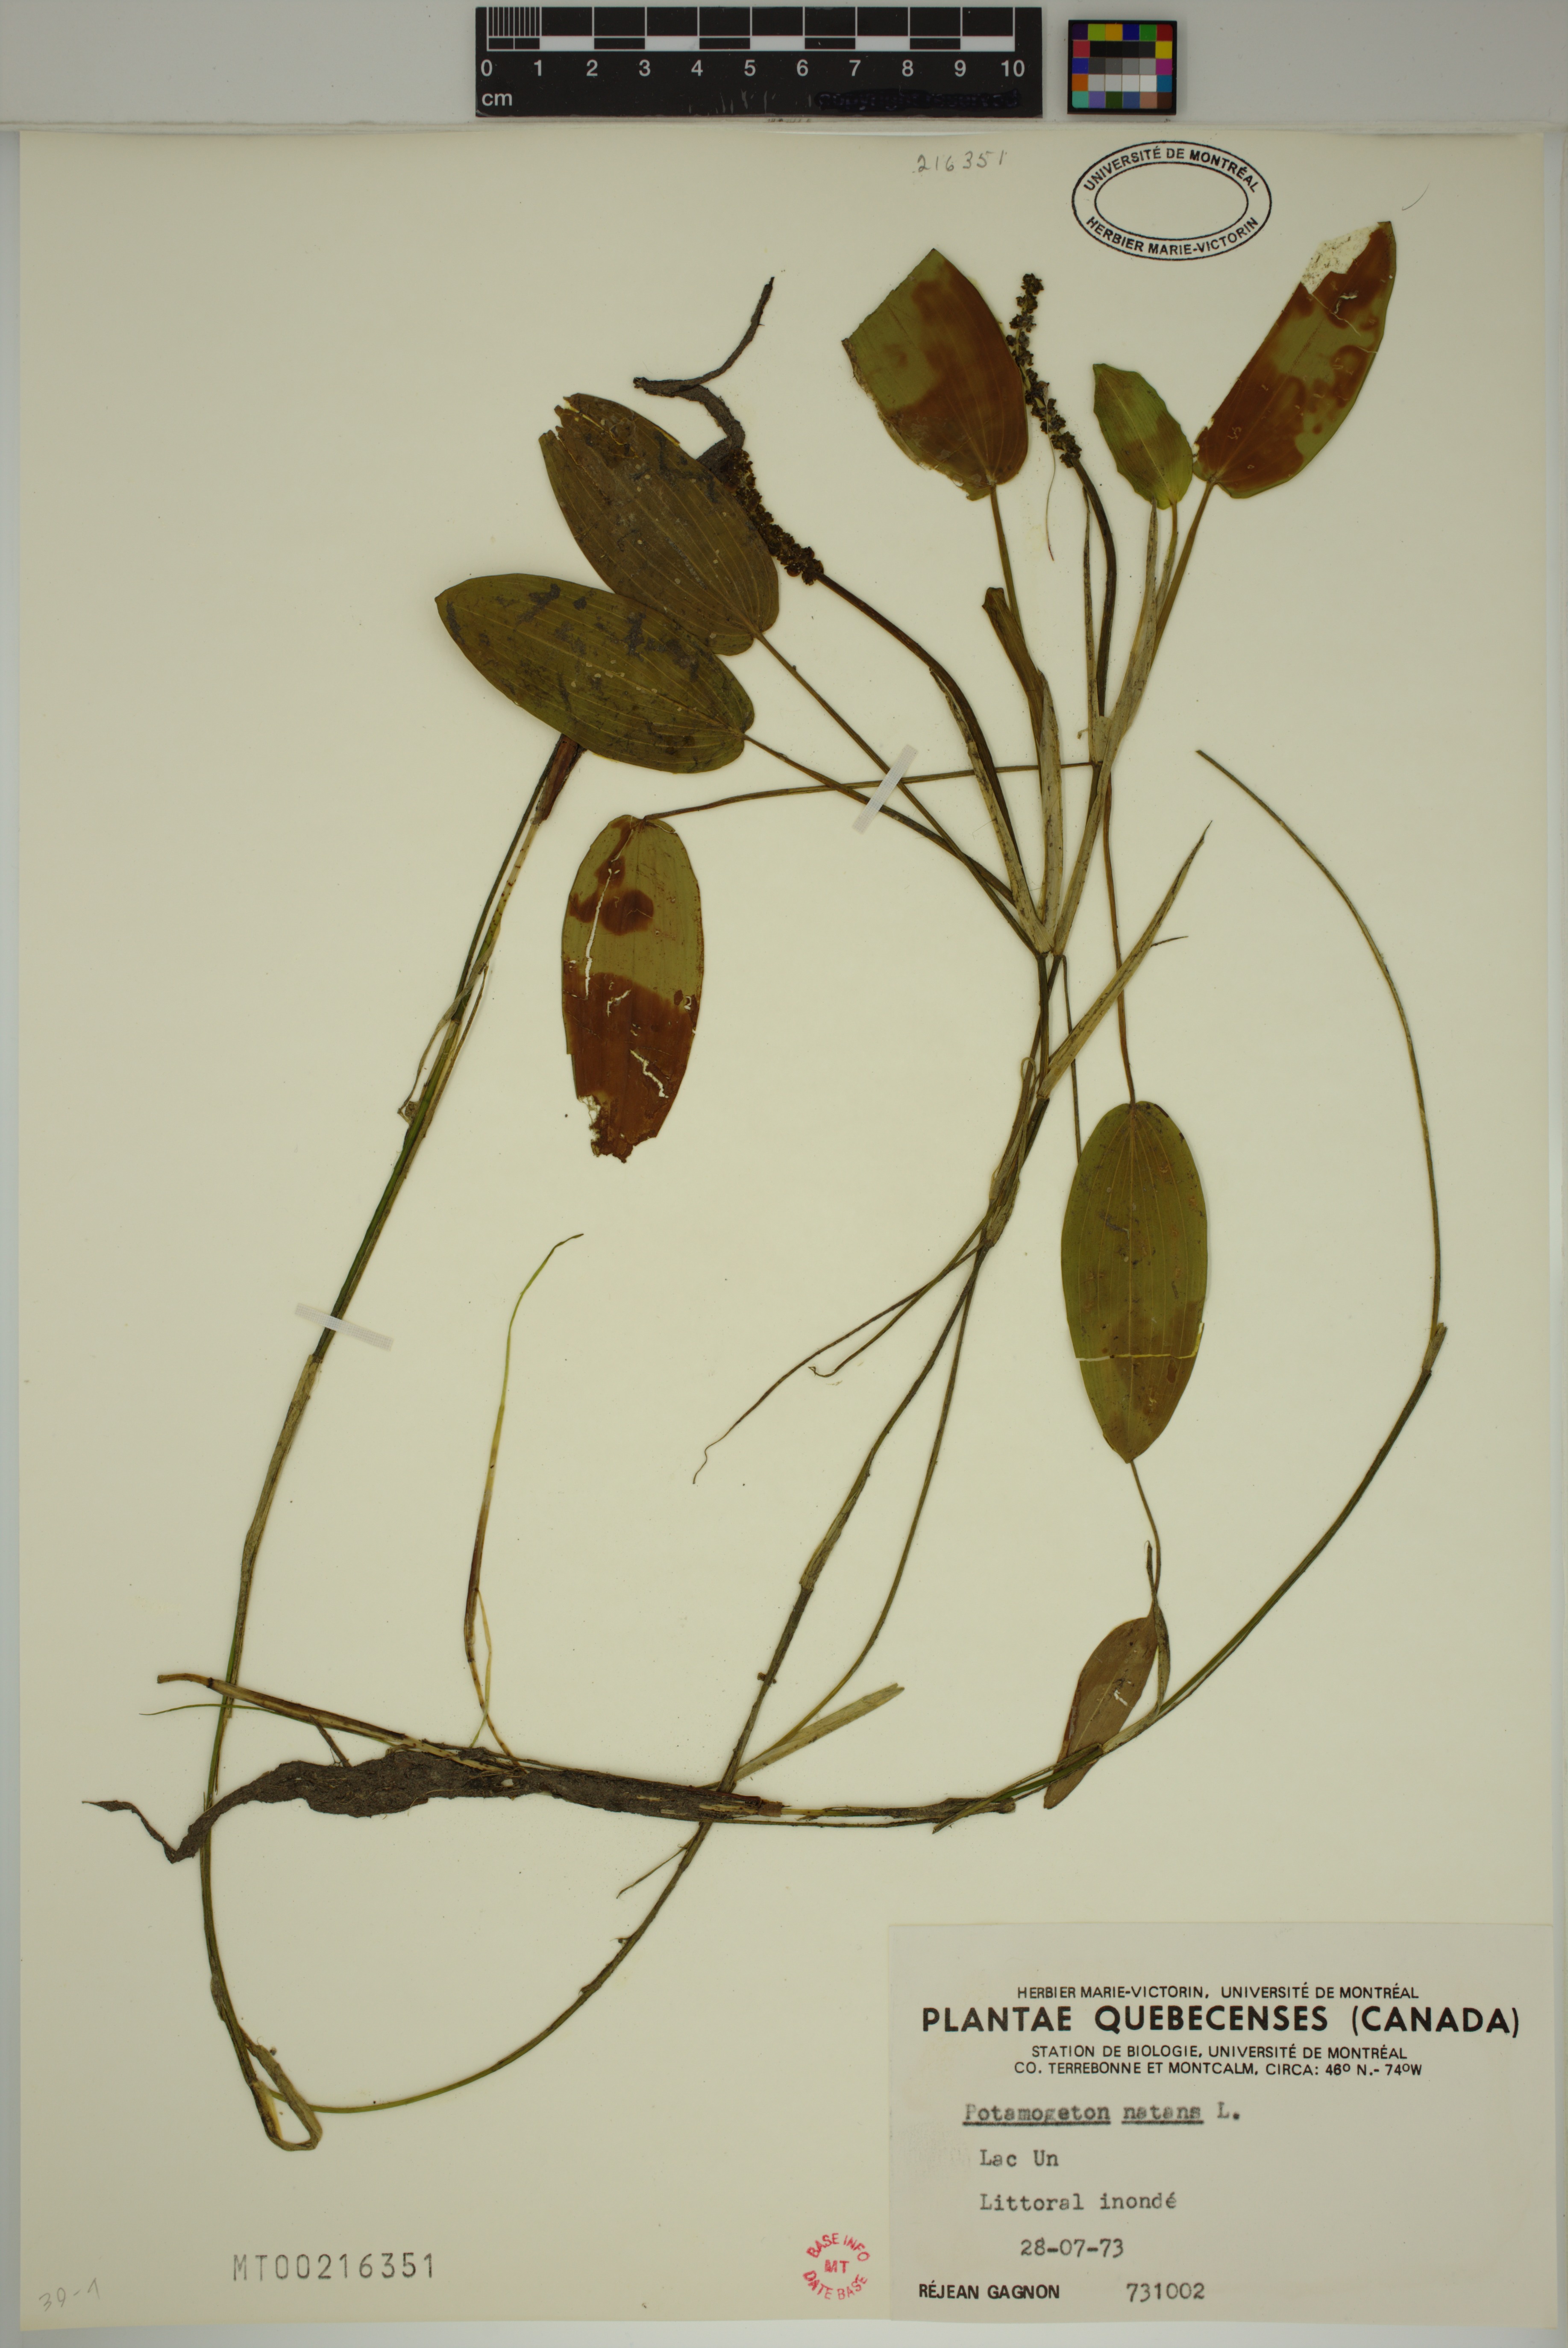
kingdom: Plantae
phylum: Tracheophyta
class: Liliopsida
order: Alismatales
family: Potamogetonaceae
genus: Potamogeton
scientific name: Potamogeton natans
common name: Broad-leaved pondweed
